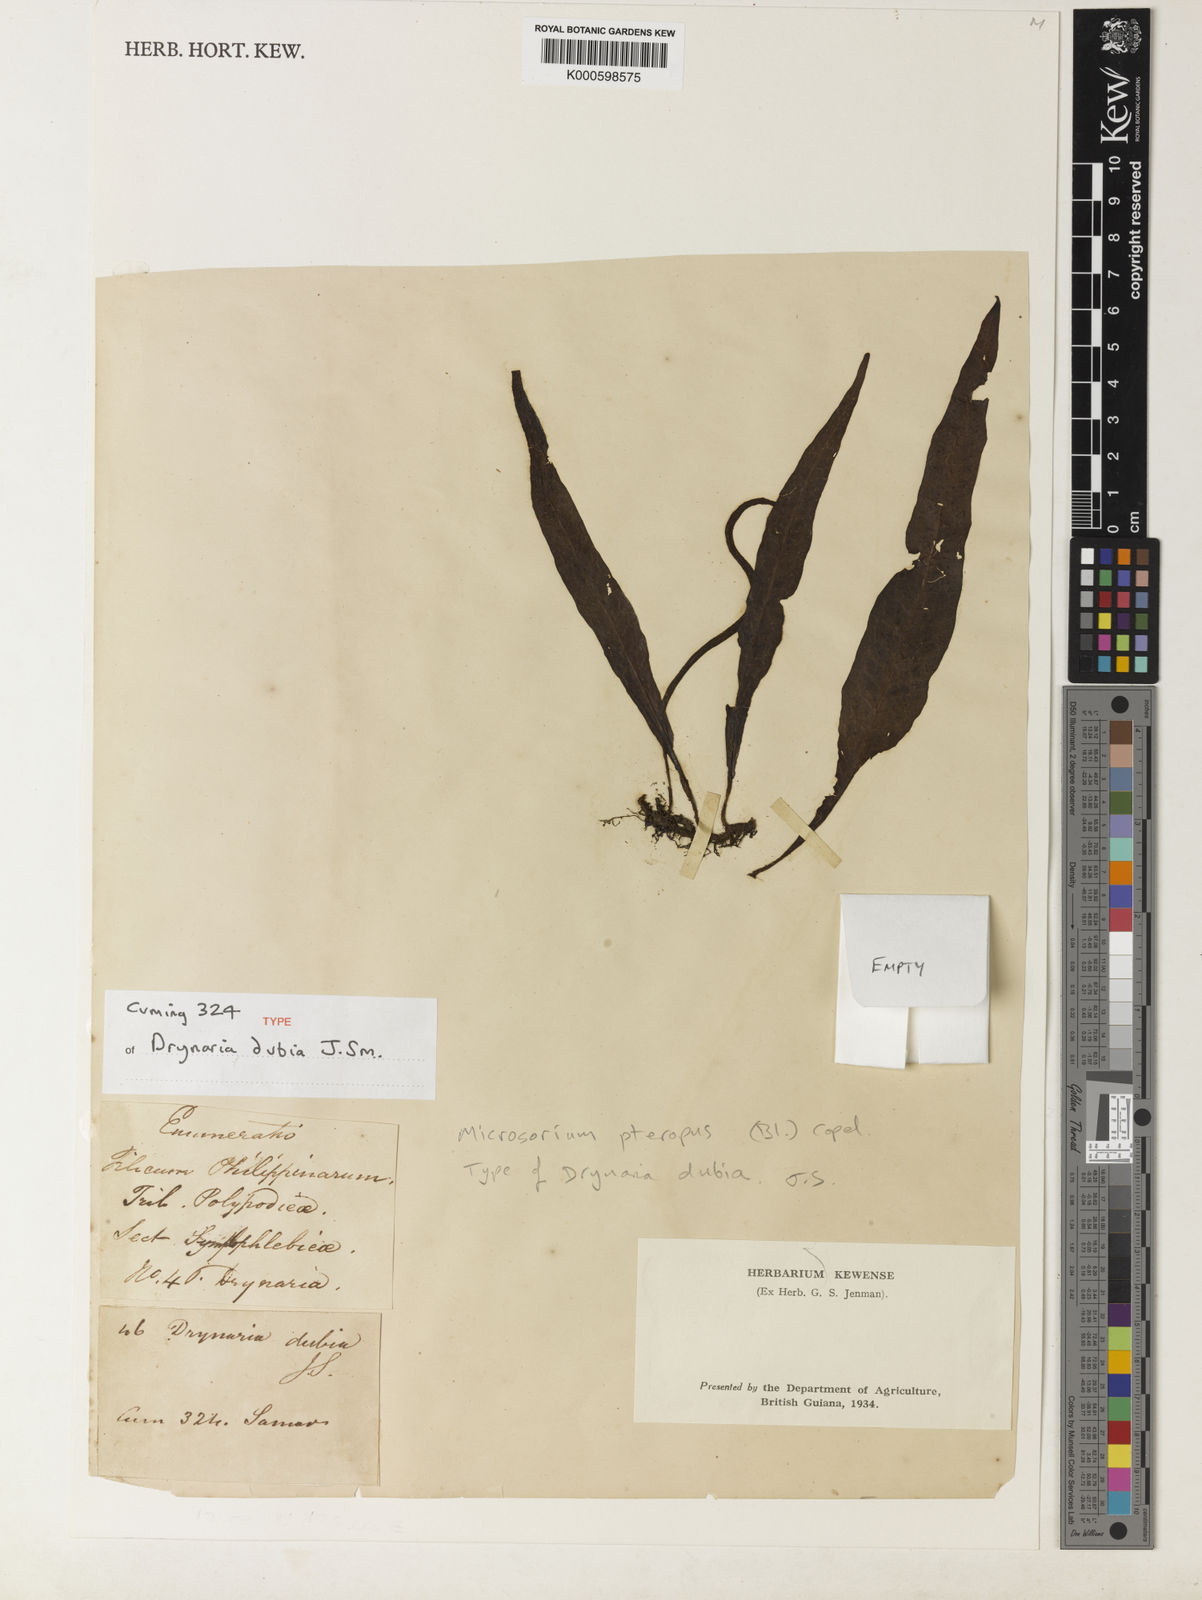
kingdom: Plantae
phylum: Tracheophyta
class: Polypodiopsida
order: Polypodiales
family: Polypodiaceae
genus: Leptochilus
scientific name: Leptochilus pteropus
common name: Java fern
